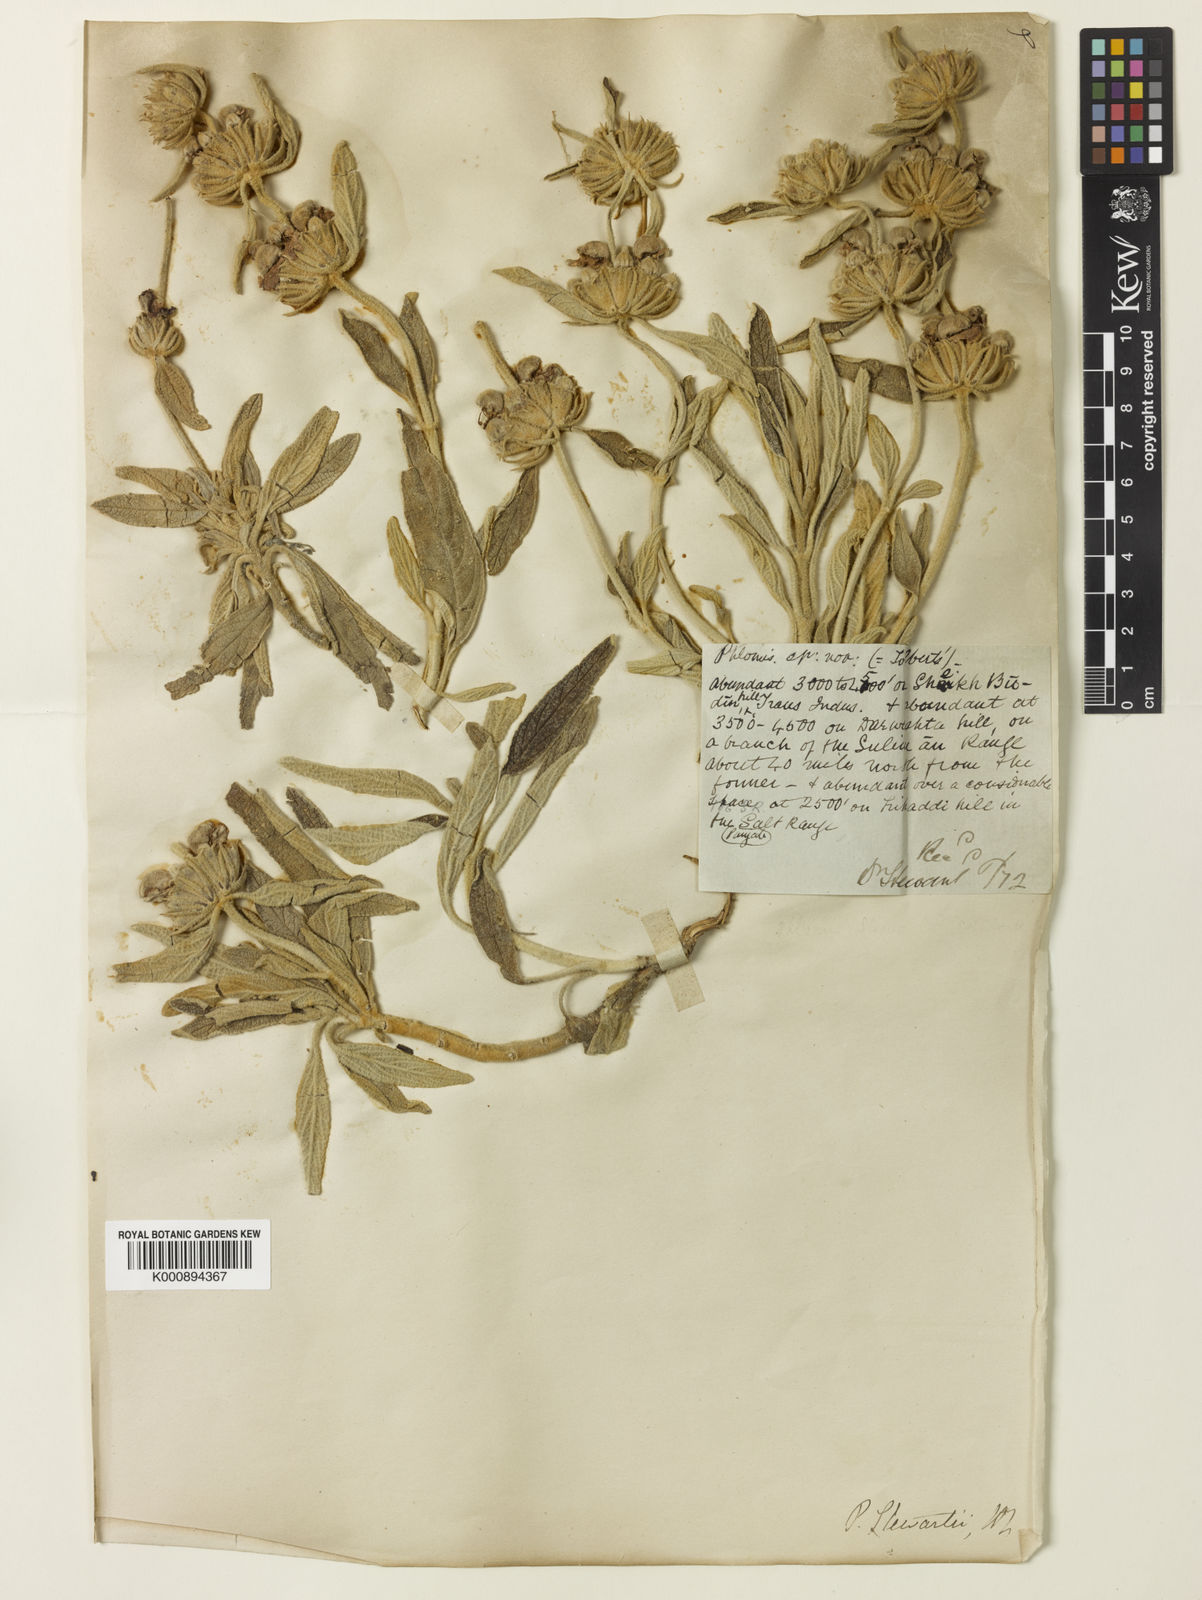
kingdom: Plantae
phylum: Tracheophyta
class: Magnoliopsida
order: Lamiales
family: Lamiaceae
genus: Phlomis
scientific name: Phlomis stewartii
